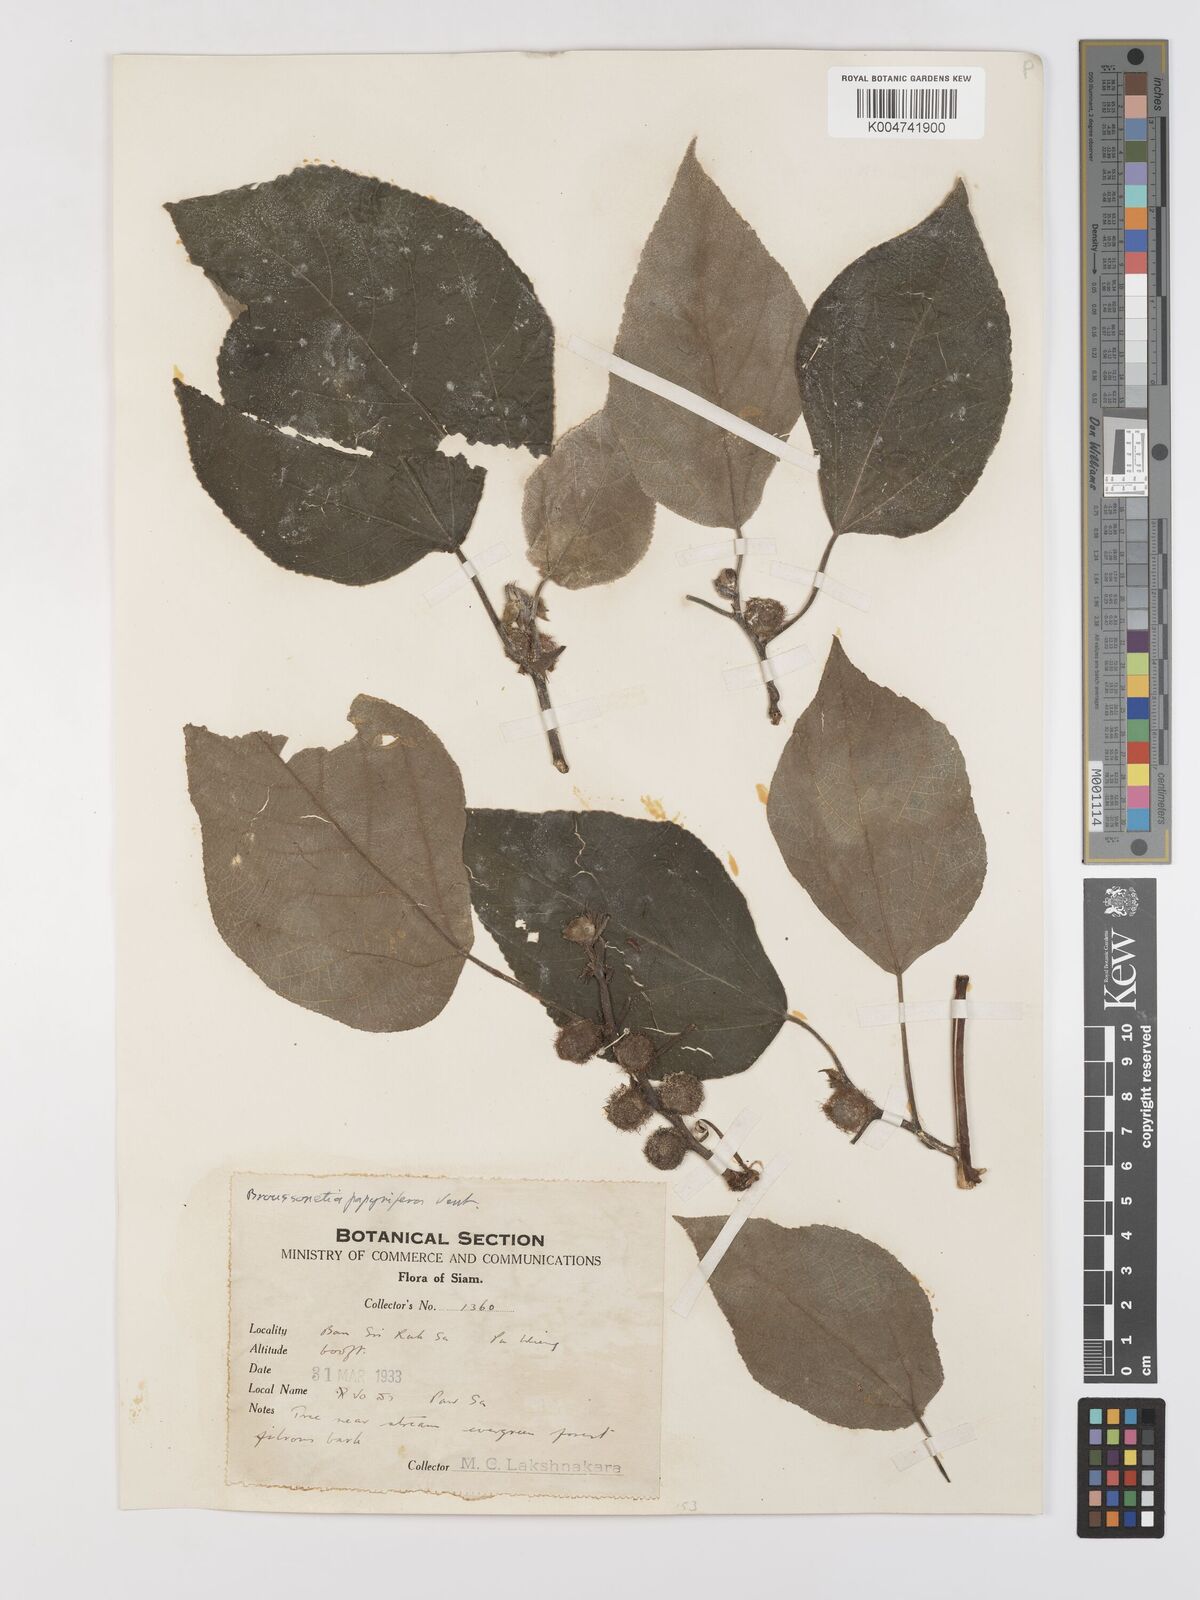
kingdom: Plantae
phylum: Tracheophyta
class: Magnoliopsida
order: Rosales
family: Moraceae
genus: Broussonetia
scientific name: Broussonetia papyrifera
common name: Paper mulberry
